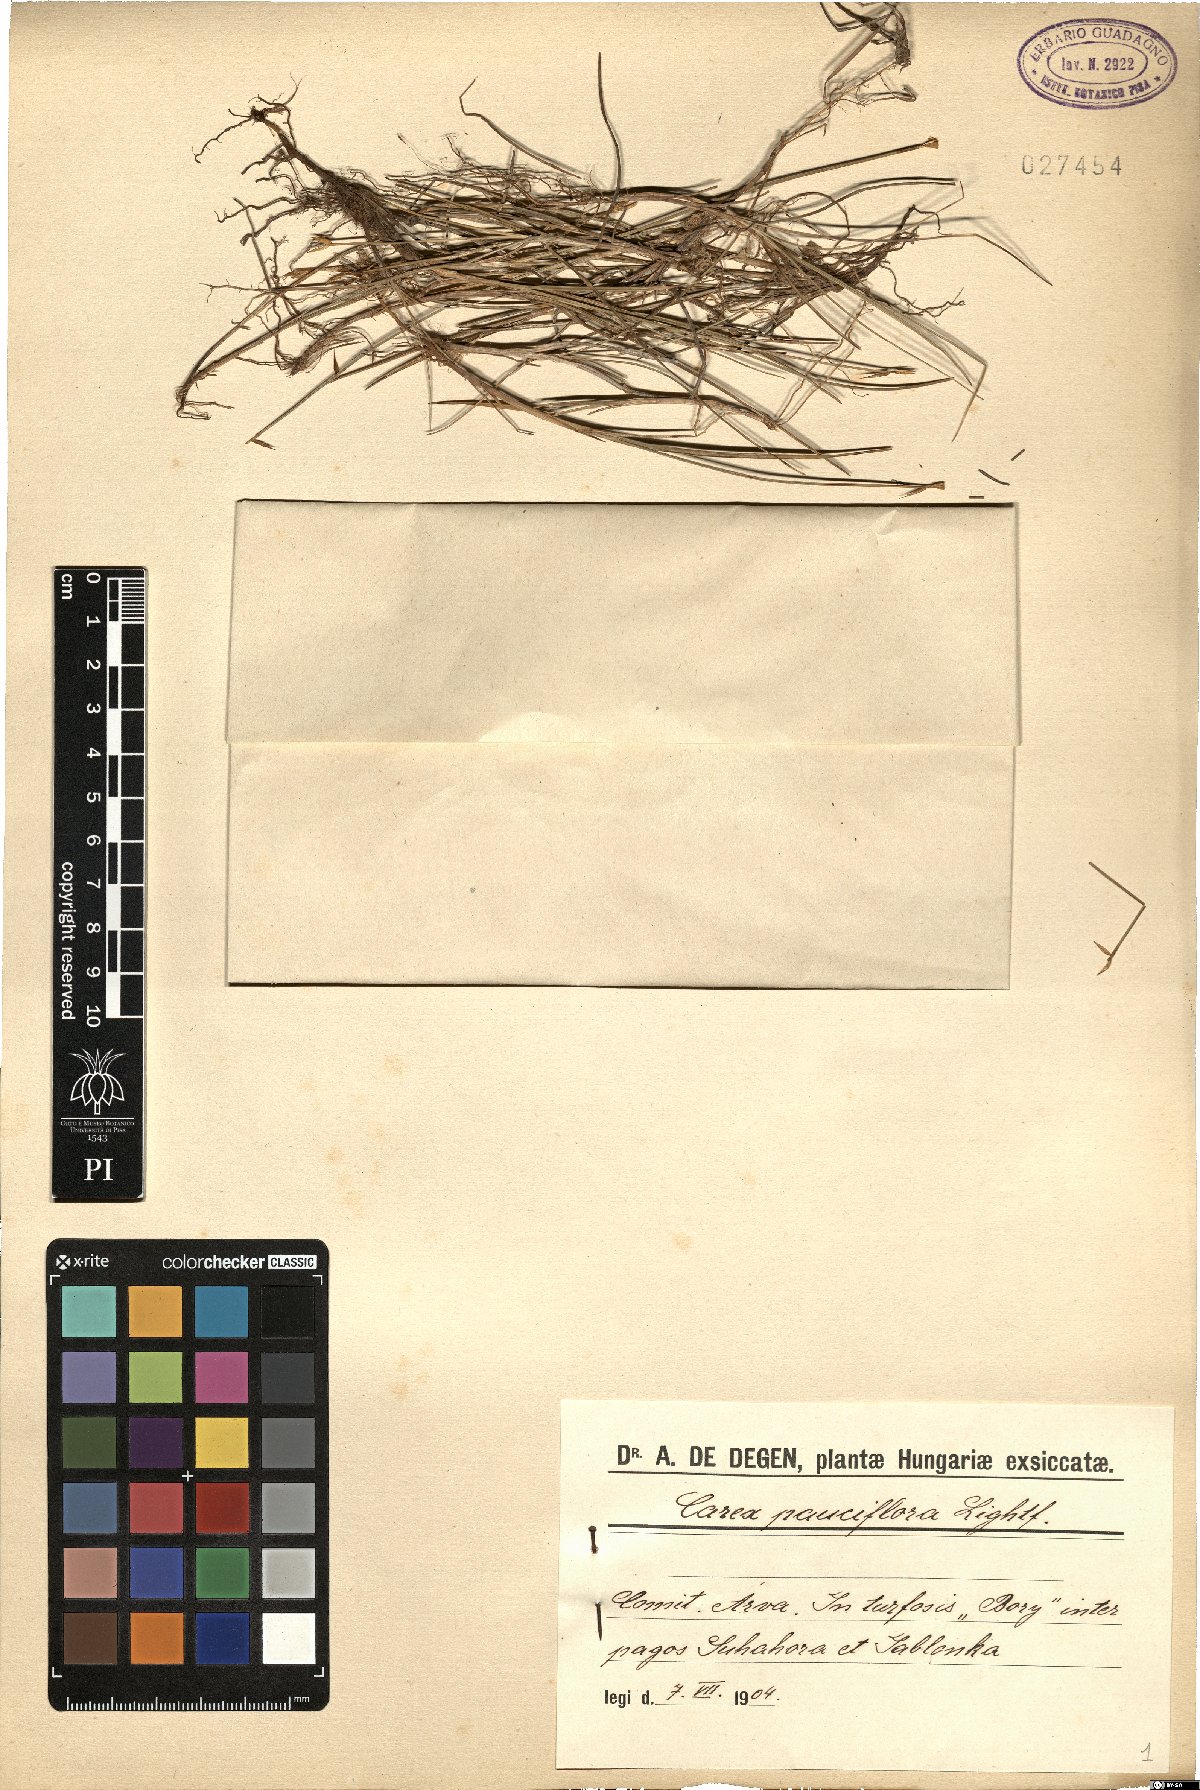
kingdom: Plantae
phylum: Tracheophyta
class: Liliopsida
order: Poales
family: Cyperaceae
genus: Carex
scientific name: Carex pauciflora
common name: Few-flowered sedge
